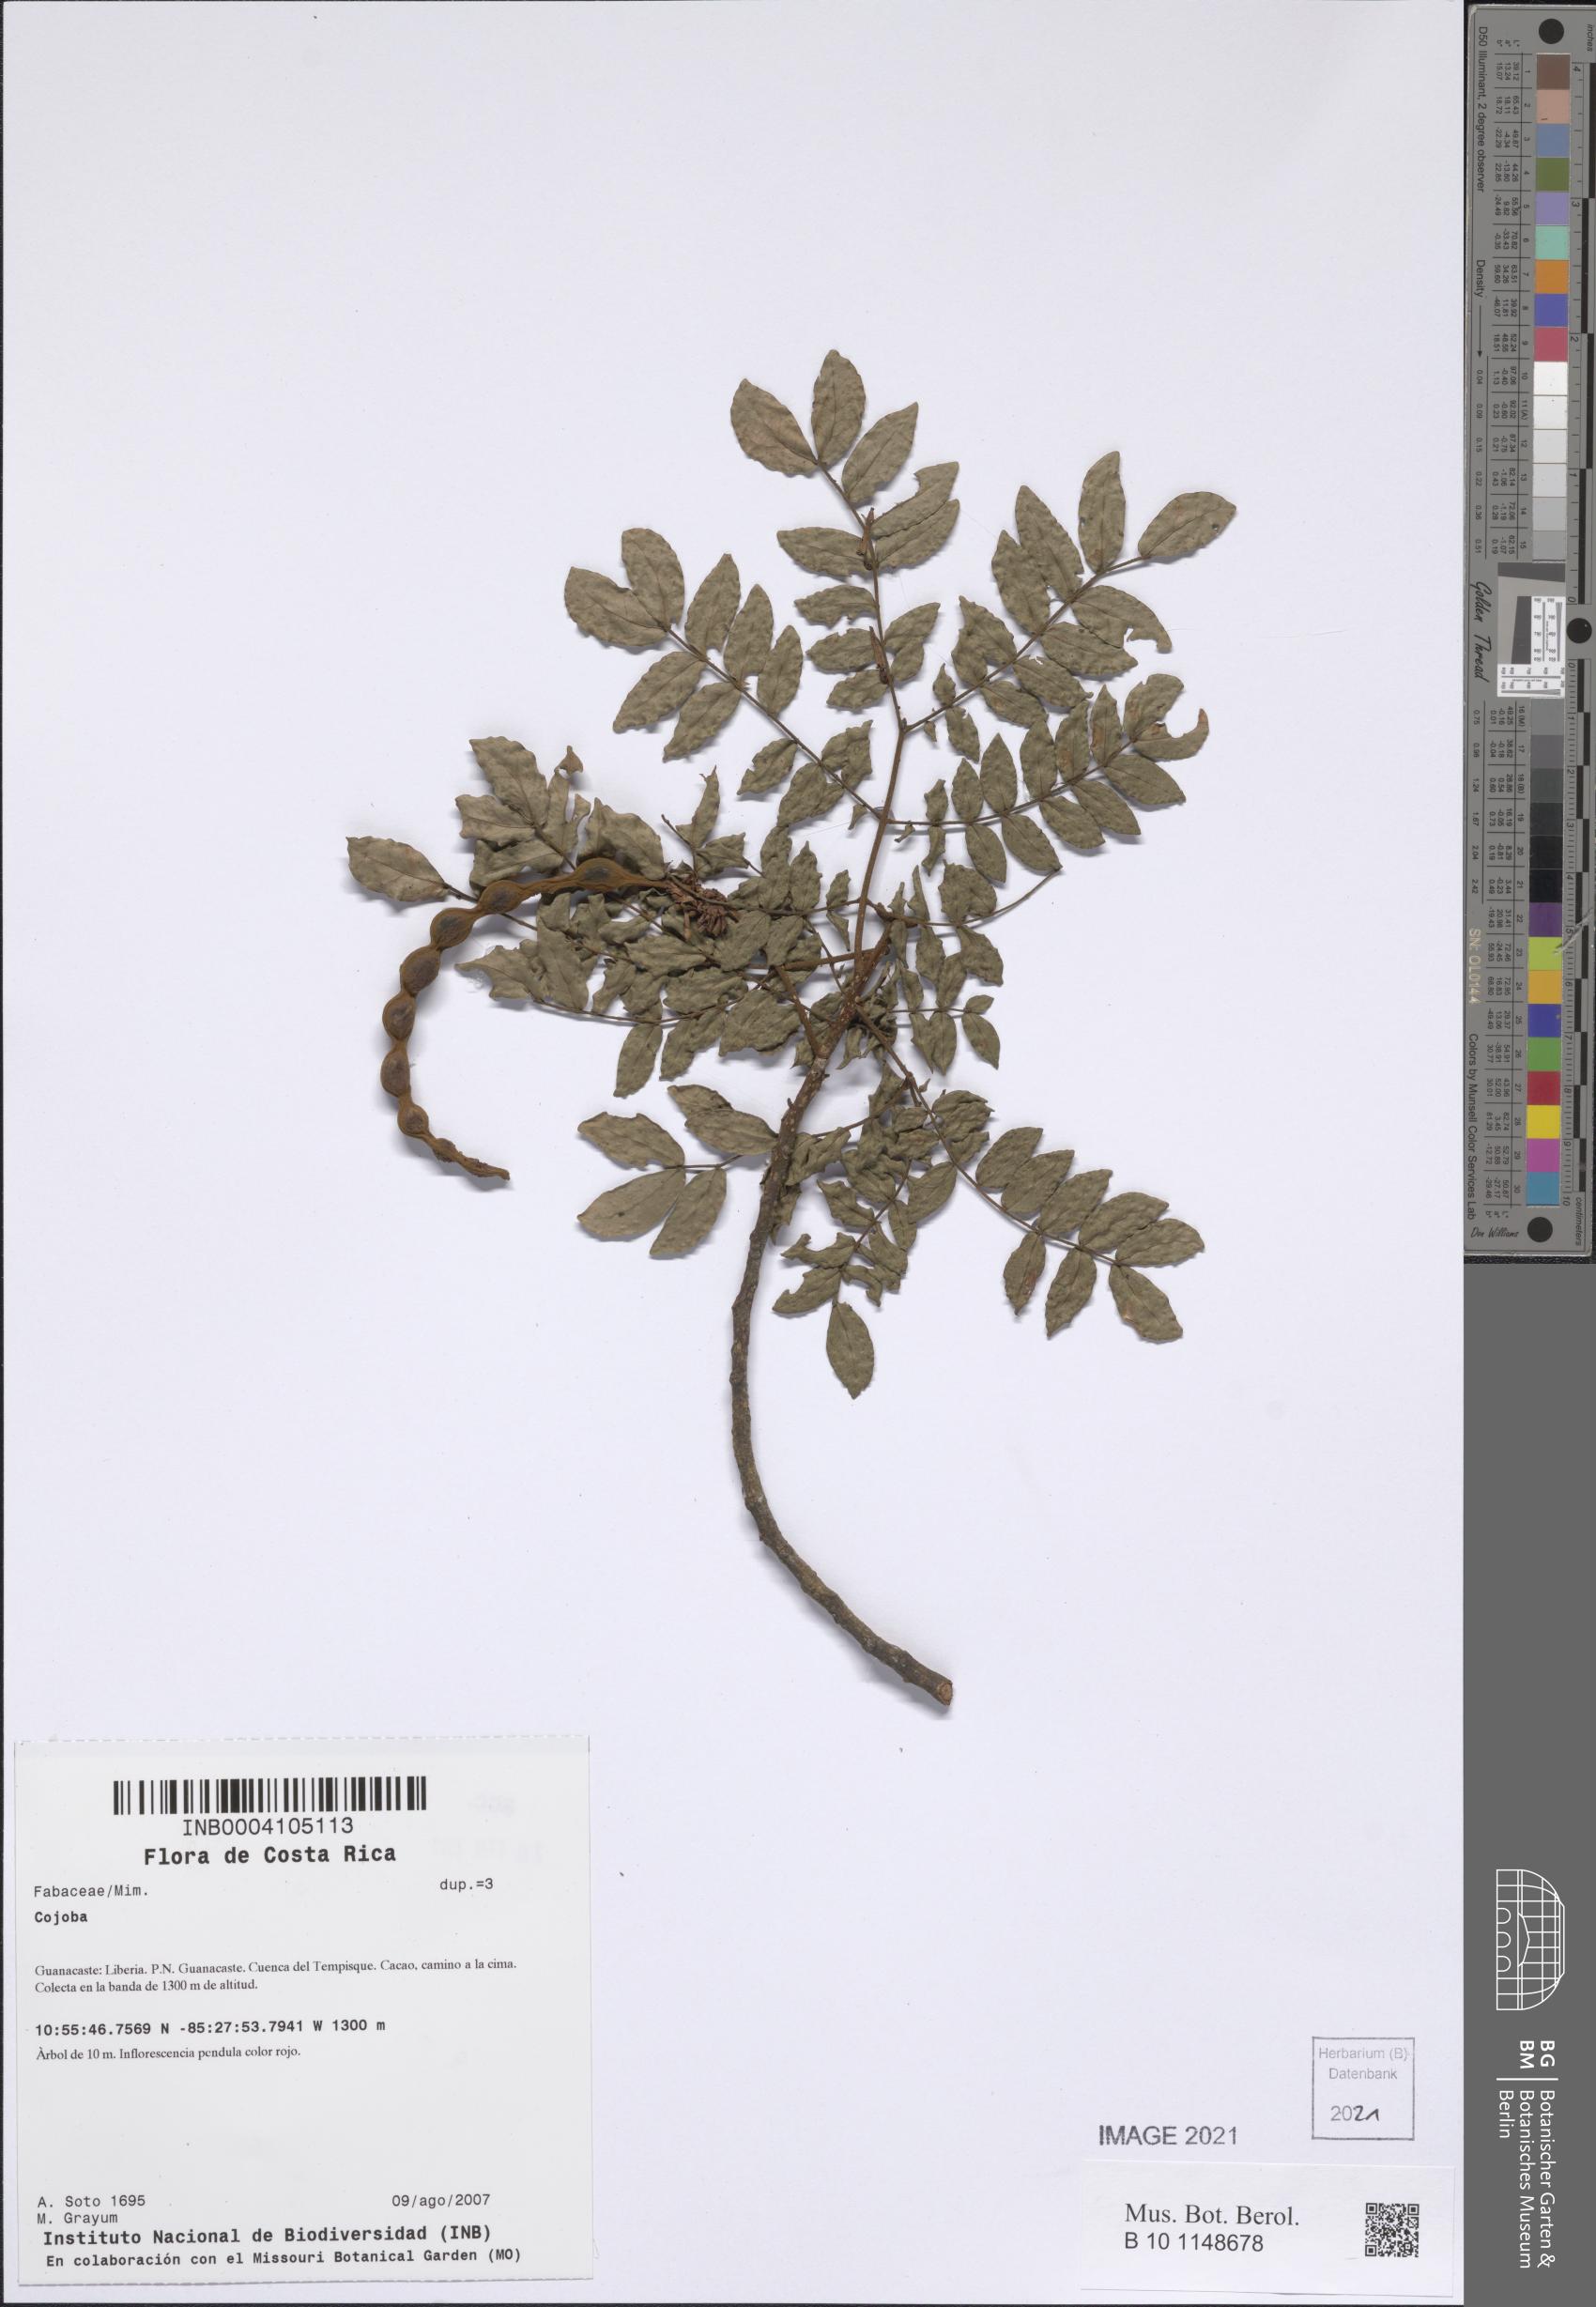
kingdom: Plantae
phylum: Tracheophyta
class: Magnoliopsida
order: Fabales
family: Fabaceae
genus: Cojoba
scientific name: Cojoba
